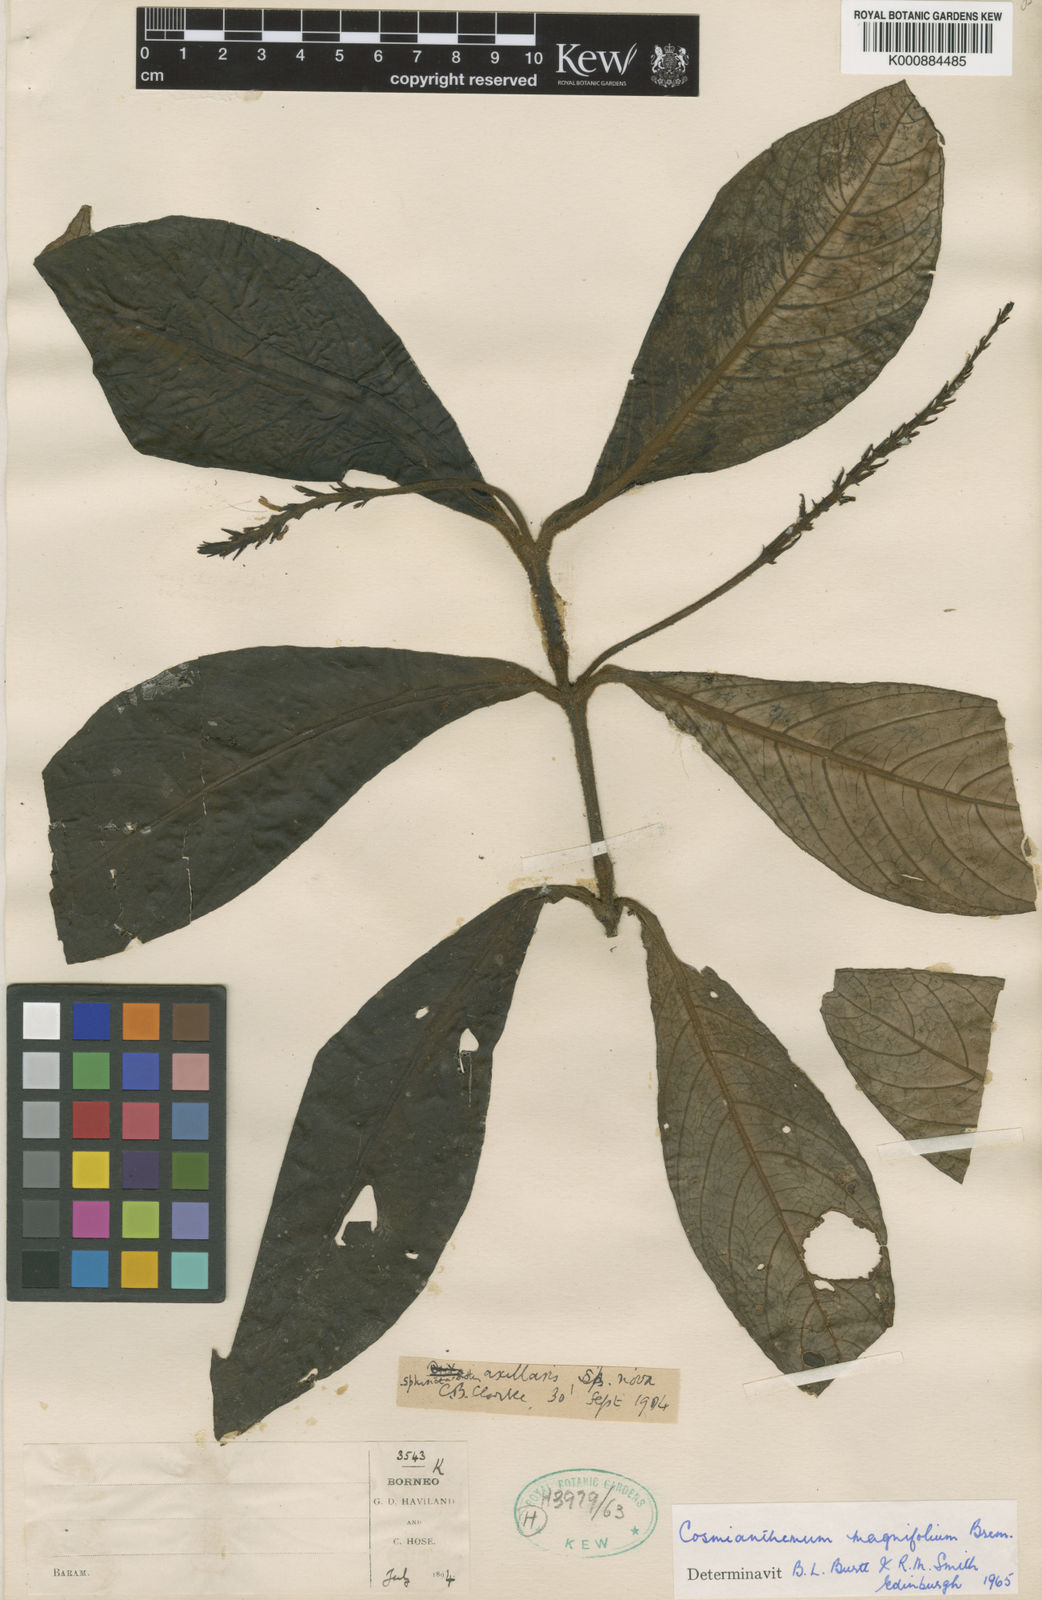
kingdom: Plantae
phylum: Tracheophyta
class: Magnoliopsida
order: Lamiales
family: Acanthaceae
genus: Cosmianthemum
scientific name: Cosmianthemum magnifolium
